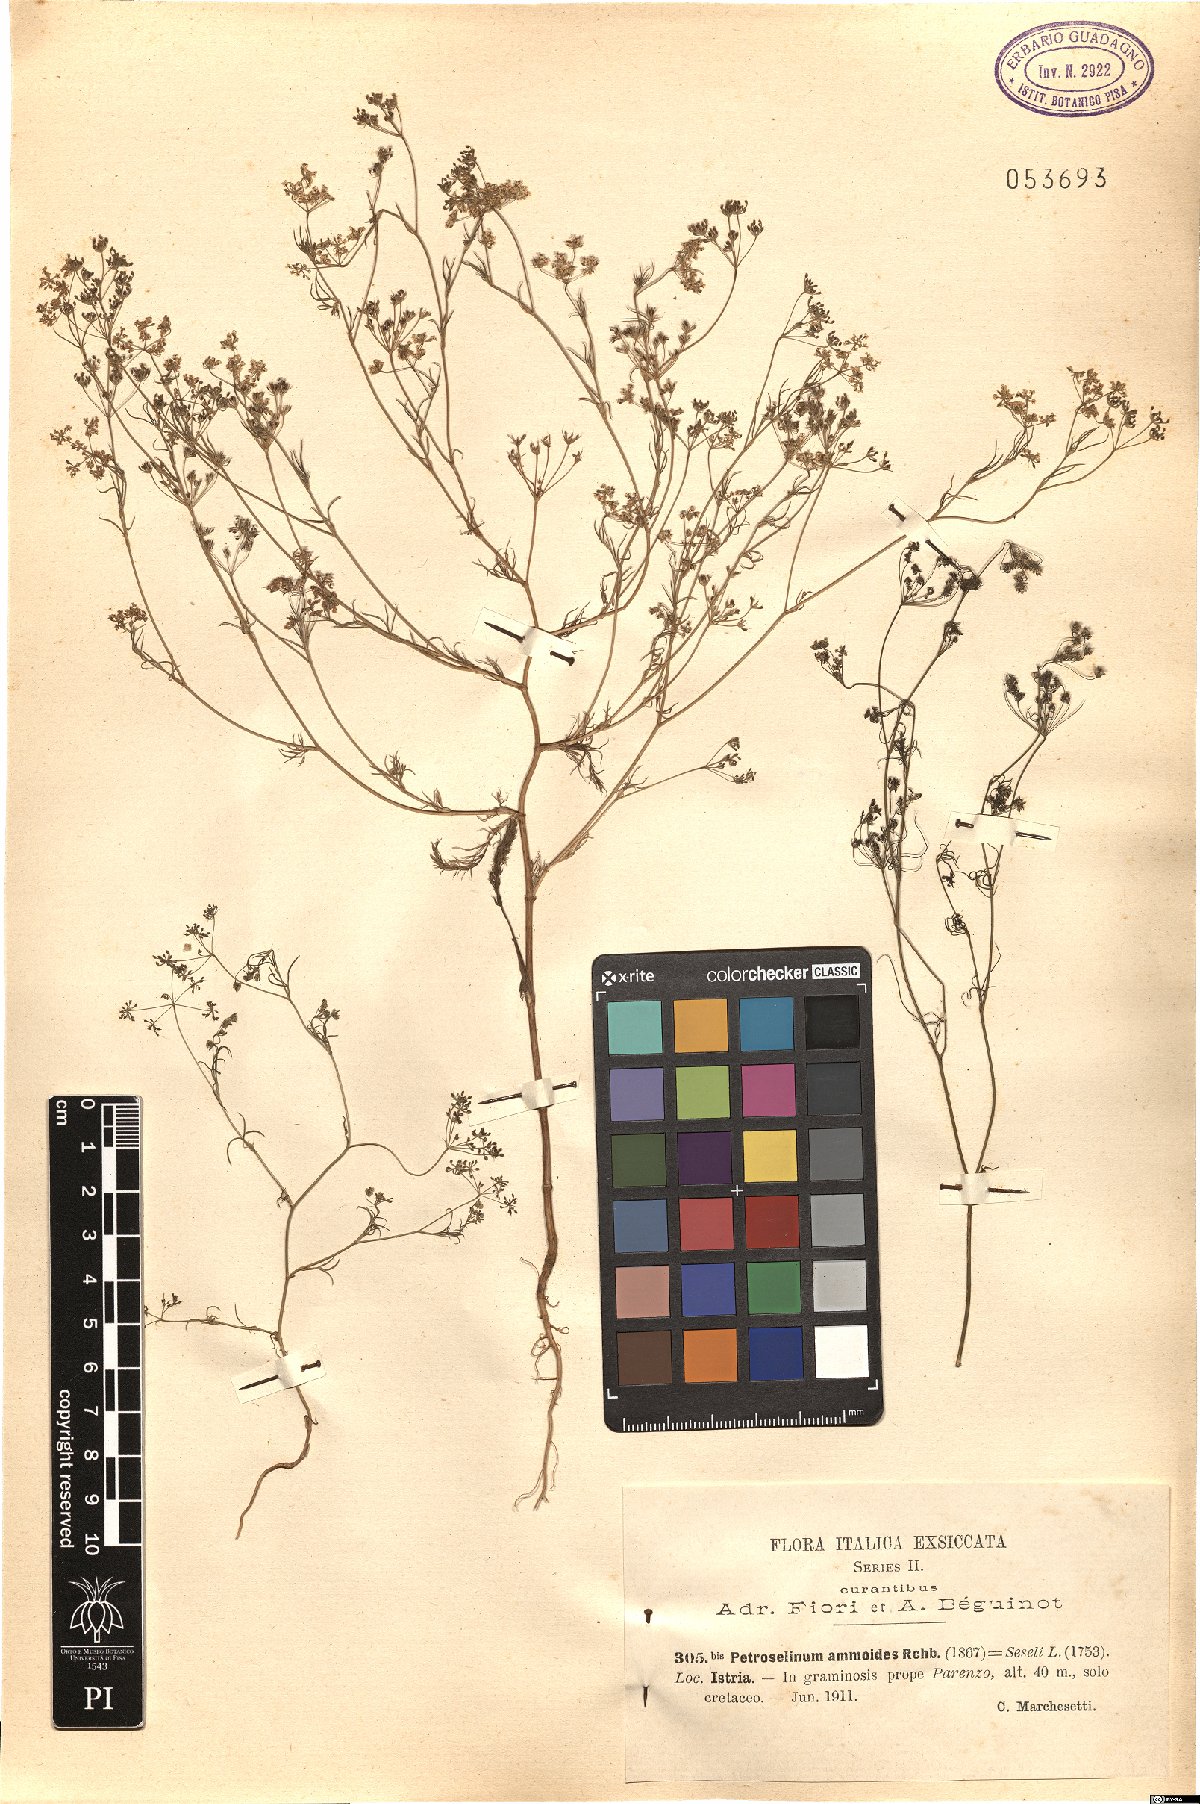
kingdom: Plantae
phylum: Tracheophyta
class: Magnoliopsida
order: Apiales
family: Apiaceae
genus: Ammoides
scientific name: Ammoides pusilla
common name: Cerfolium
